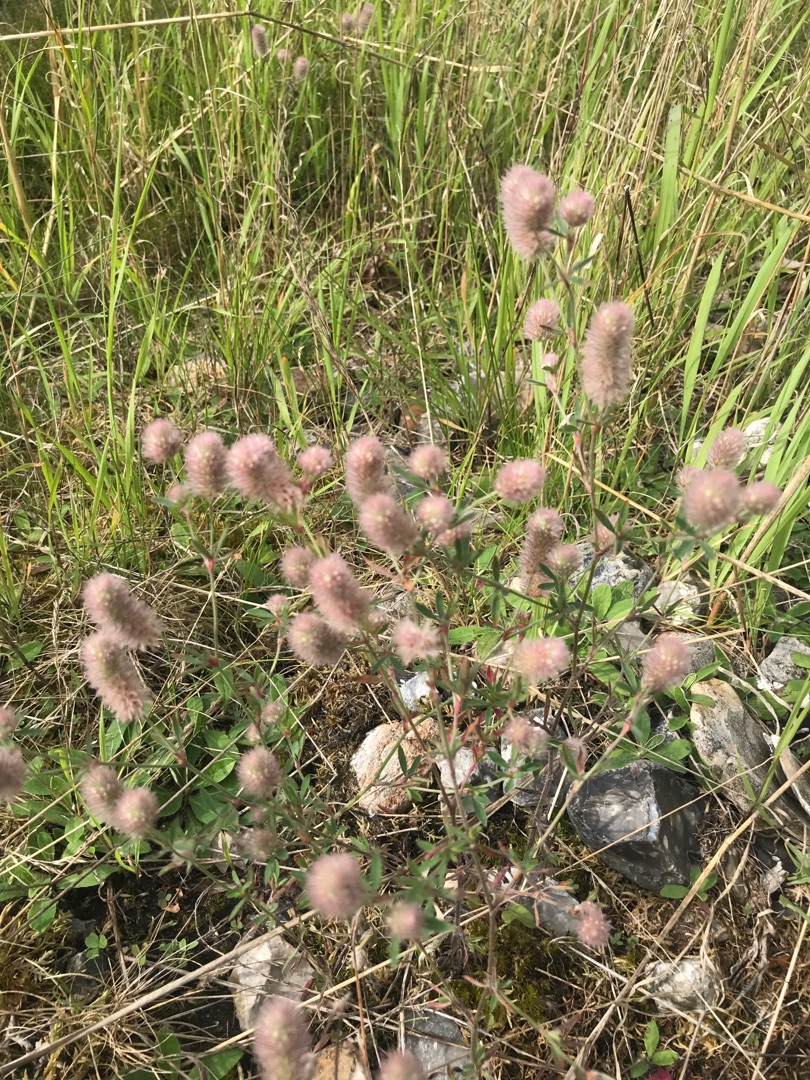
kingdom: Plantae
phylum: Tracheophyta
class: Magnoliopsida
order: Fabales
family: Fabaceae
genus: Trifolium
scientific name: Trifolium arvense
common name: Hare-kløver
